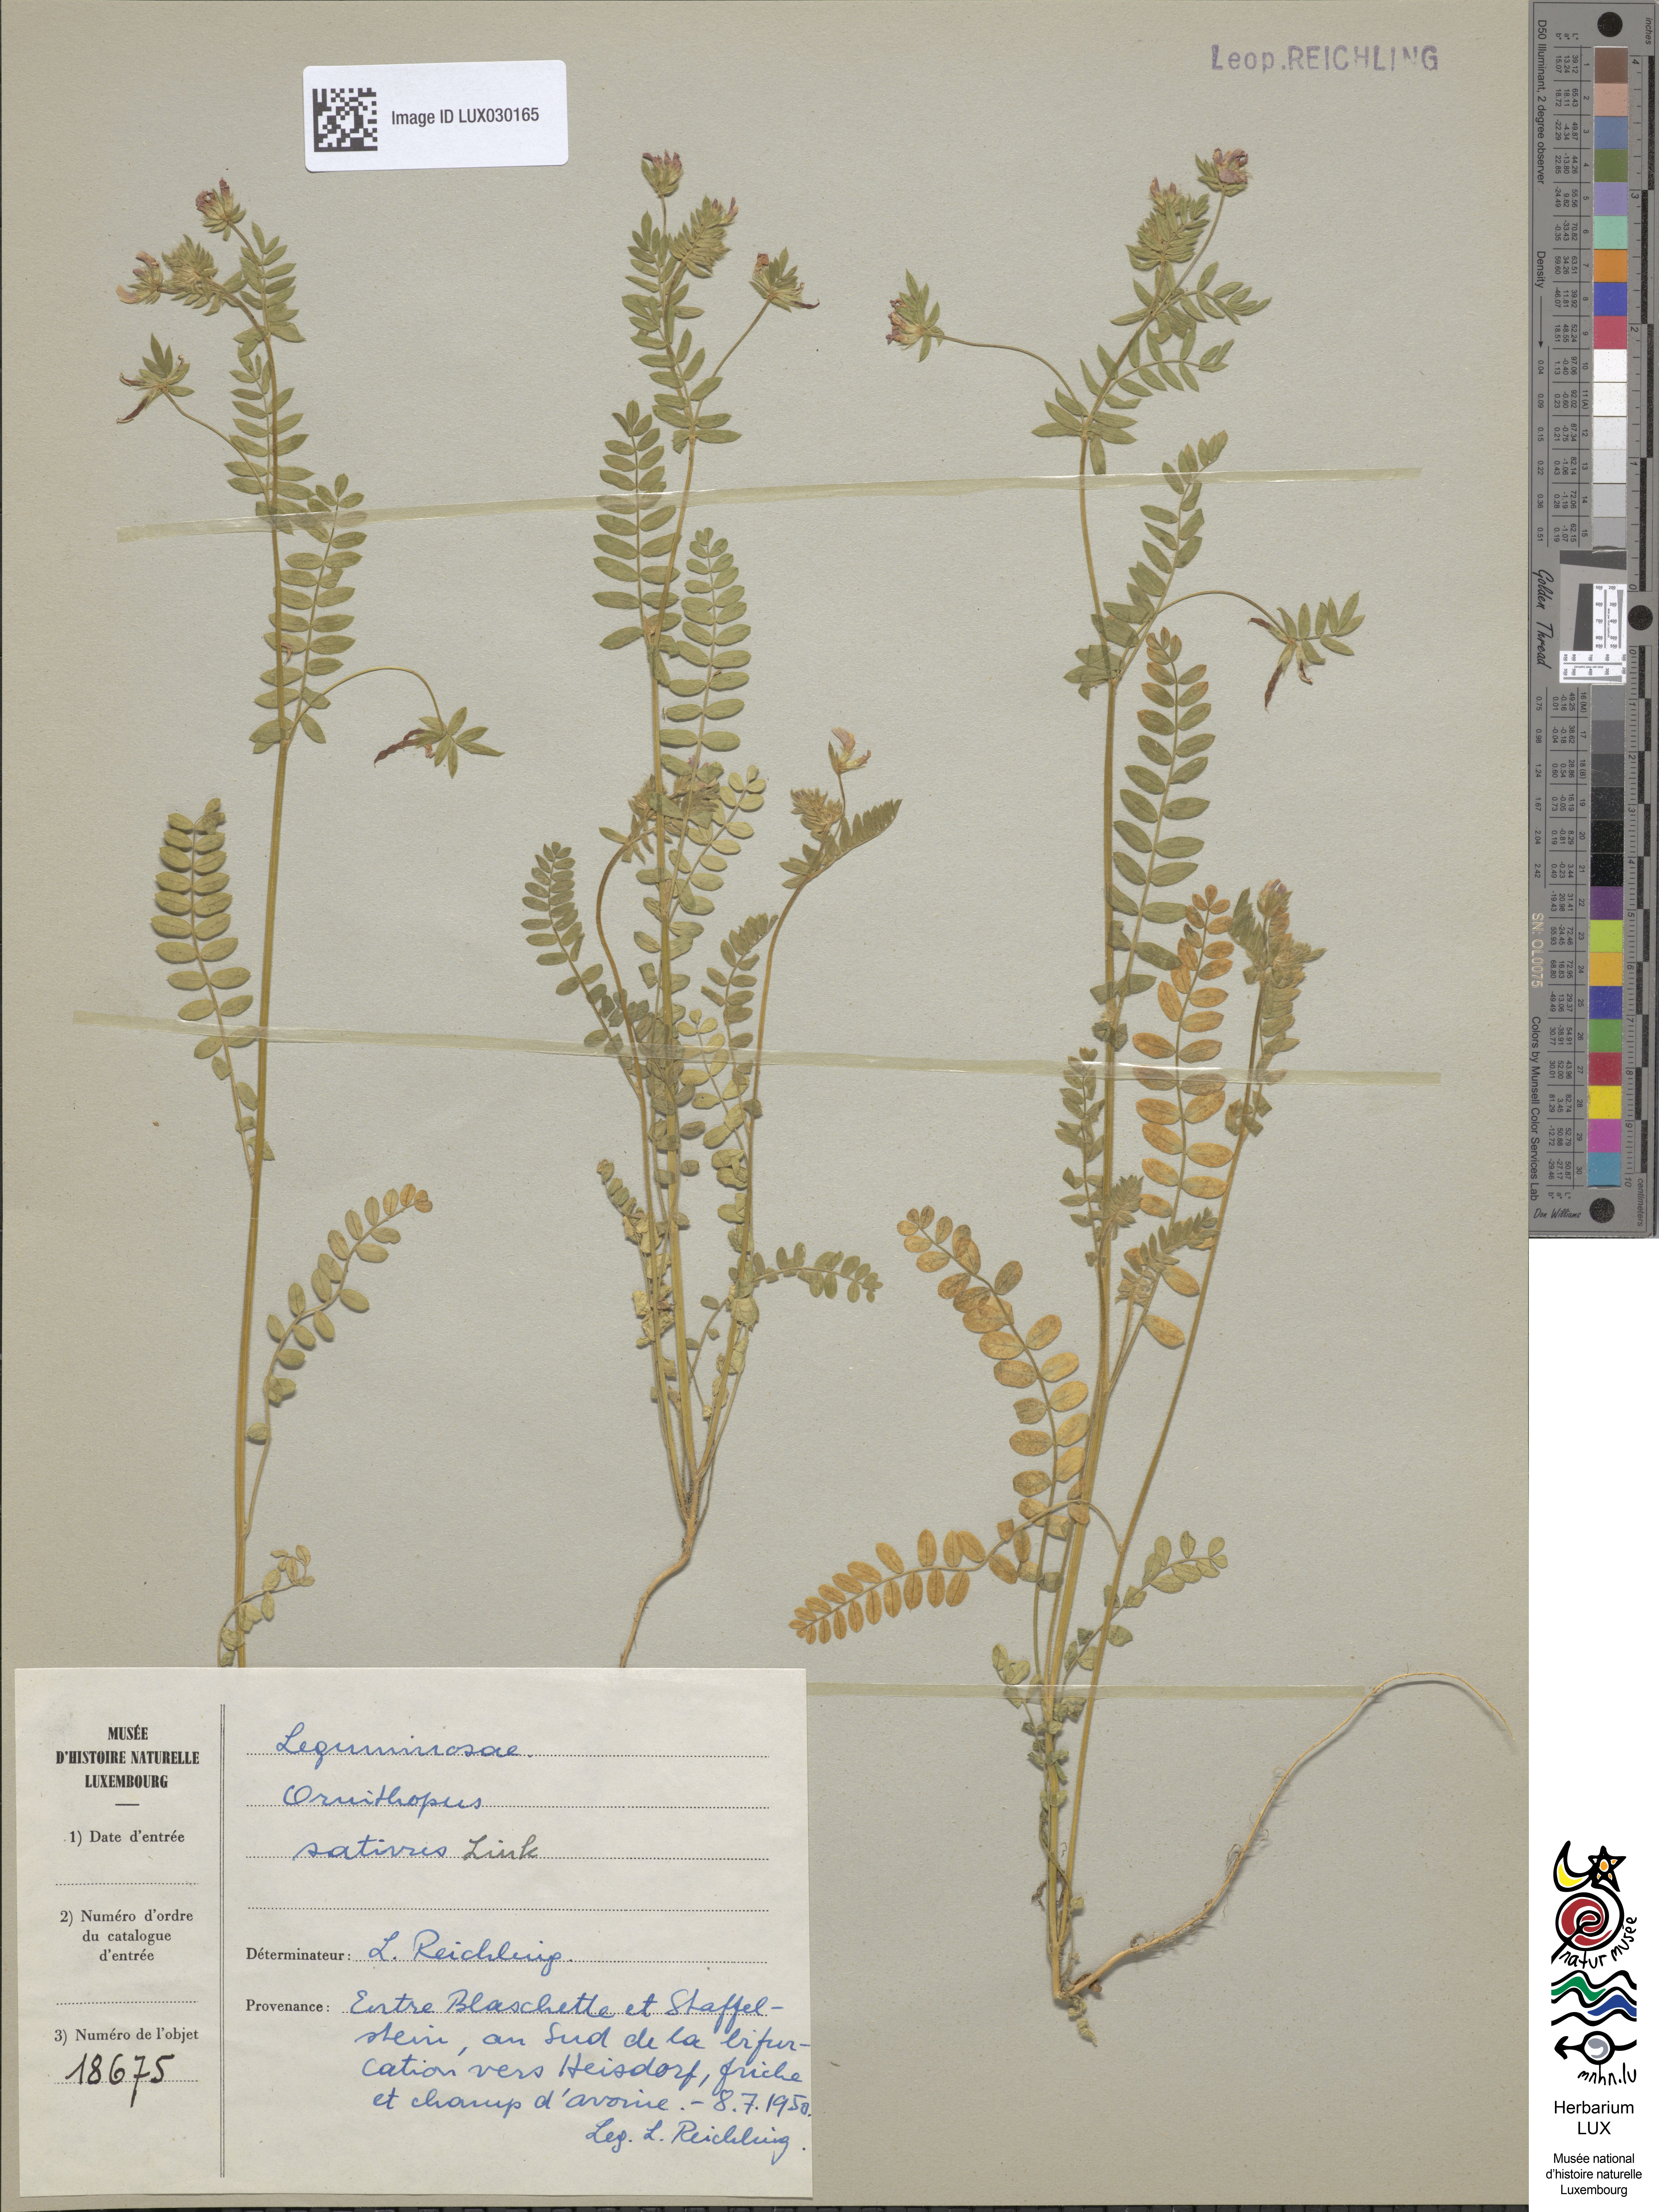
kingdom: Plantae
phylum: Tracheophyta
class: Magnoliopsida
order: Fabales
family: Fabaceae
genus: Ornithopus
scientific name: Ornithopus sativus
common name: Serradella
